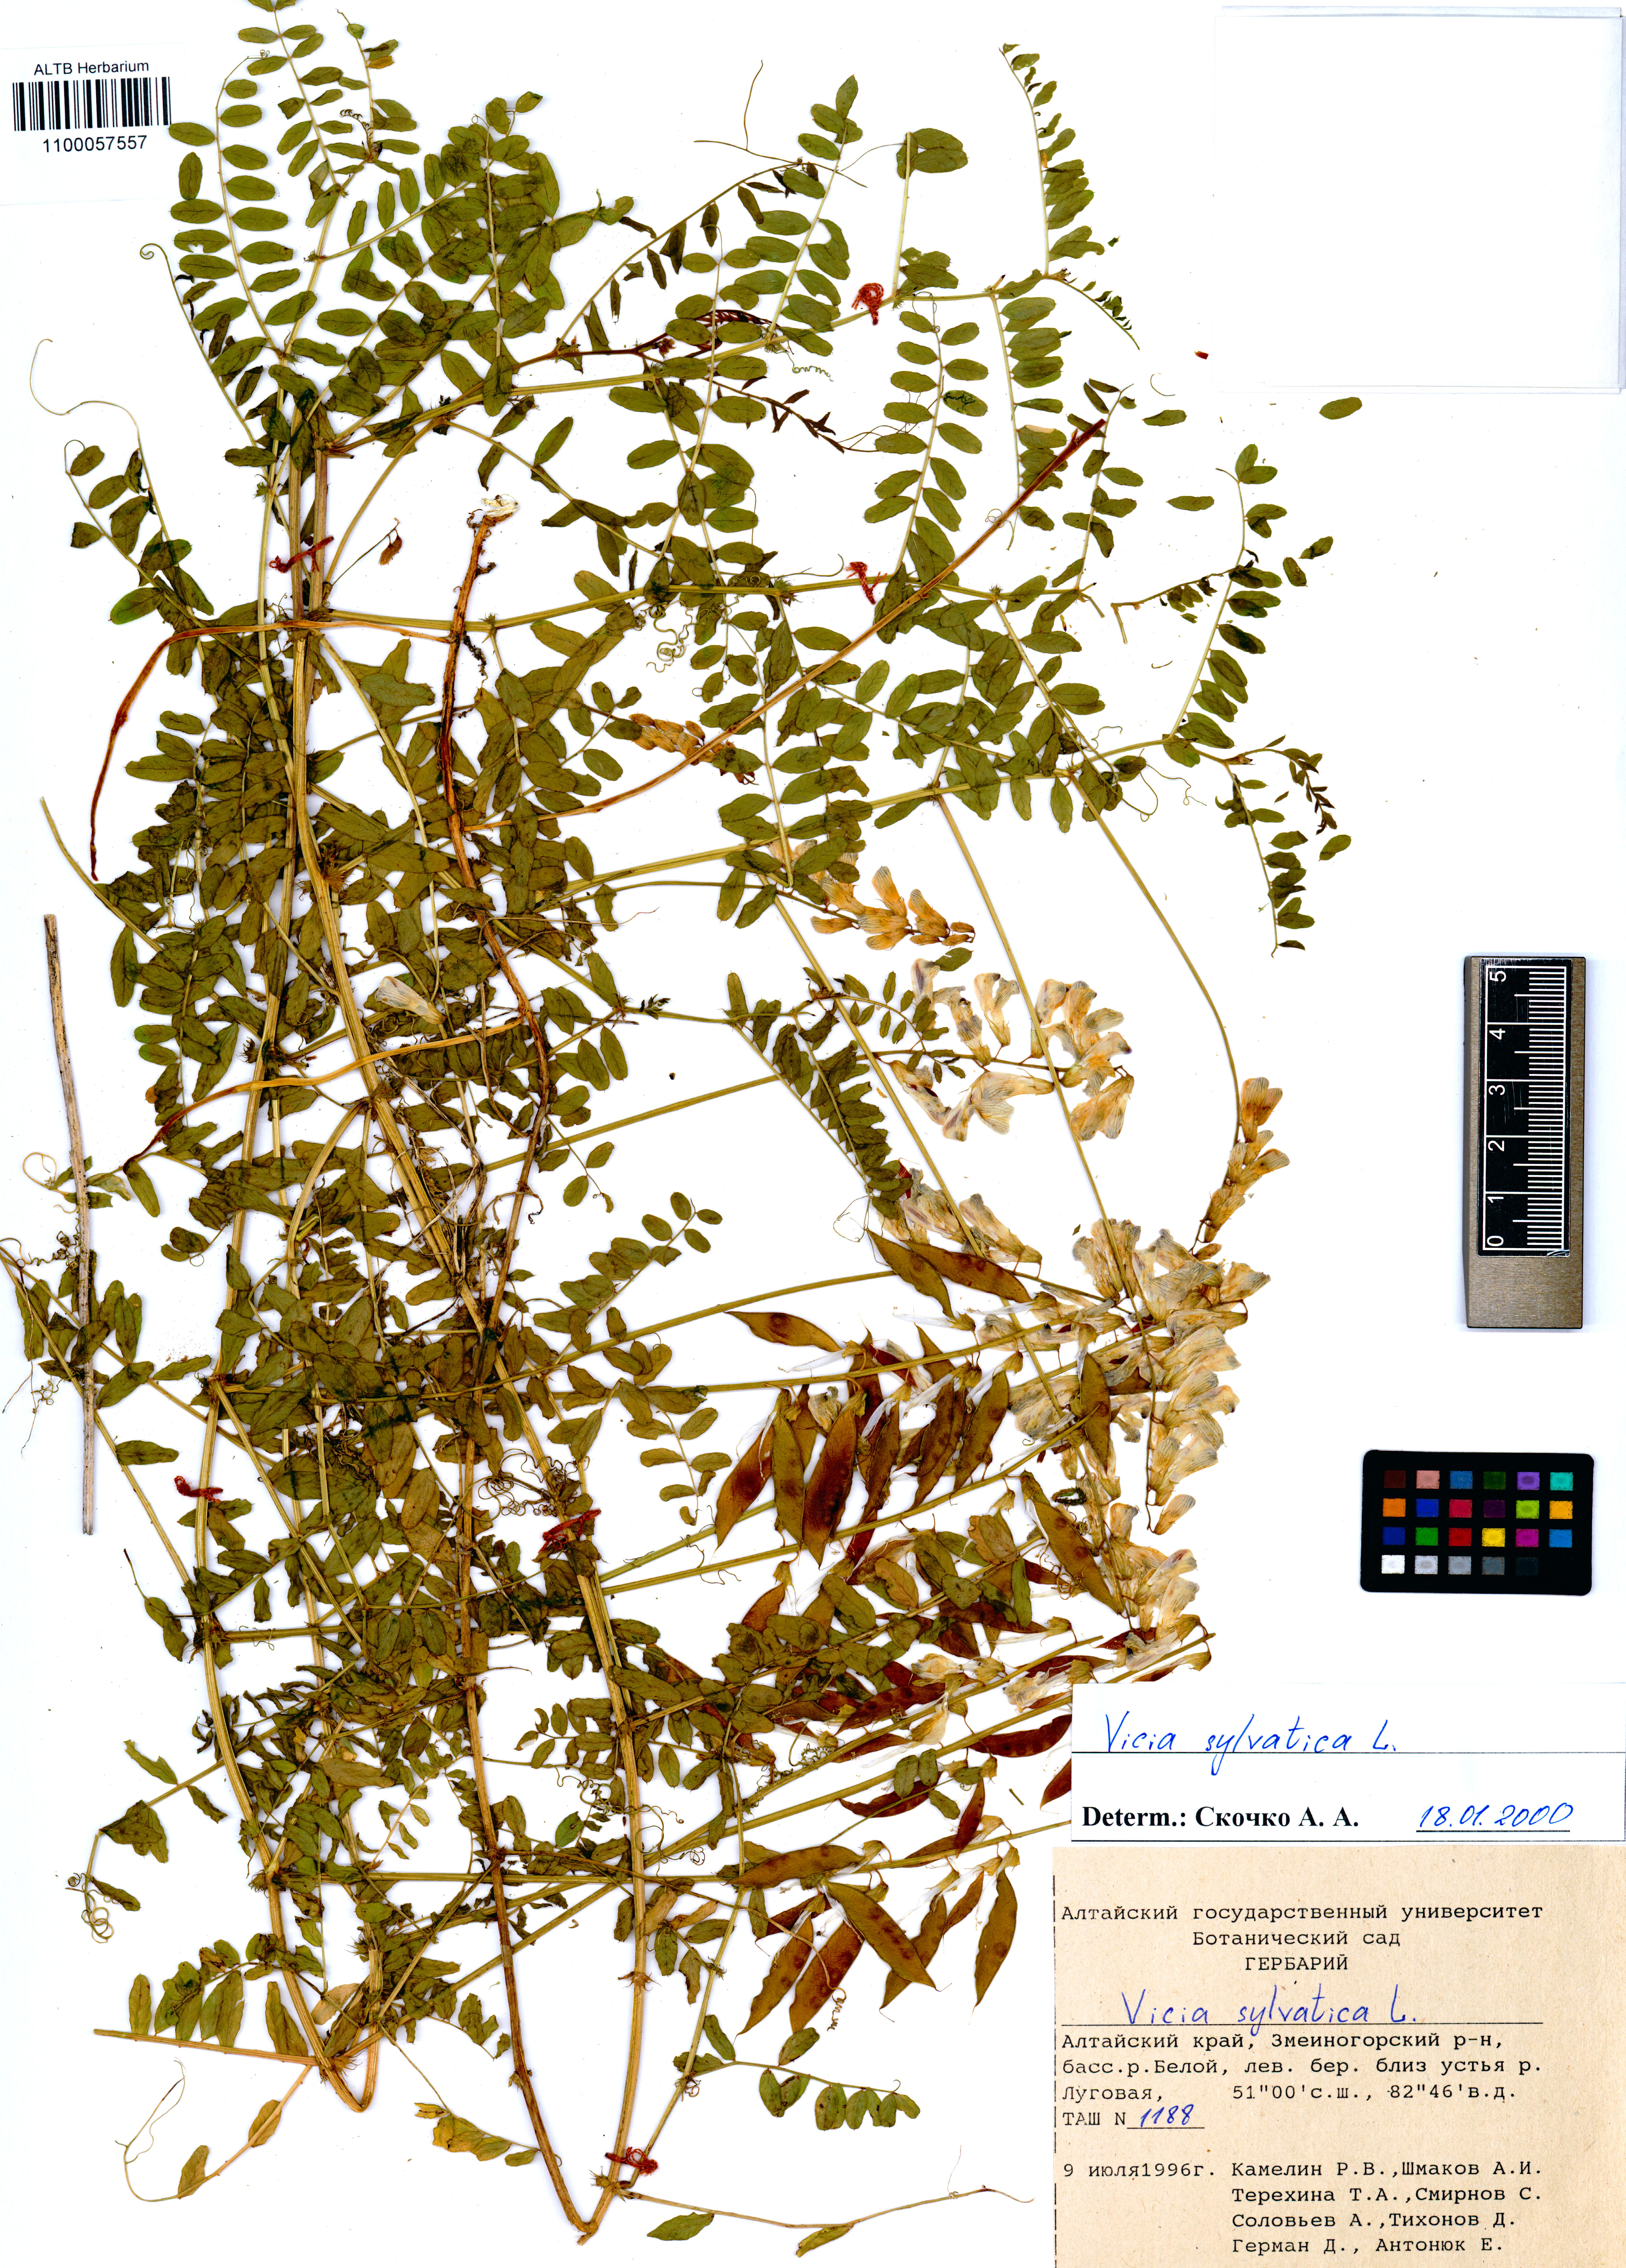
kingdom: Plantae
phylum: Tracheophyta
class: Magnoliopsida
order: Fabales
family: Fabaceae
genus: Vicia
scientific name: Vicia sylvatica
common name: Wood vetch
